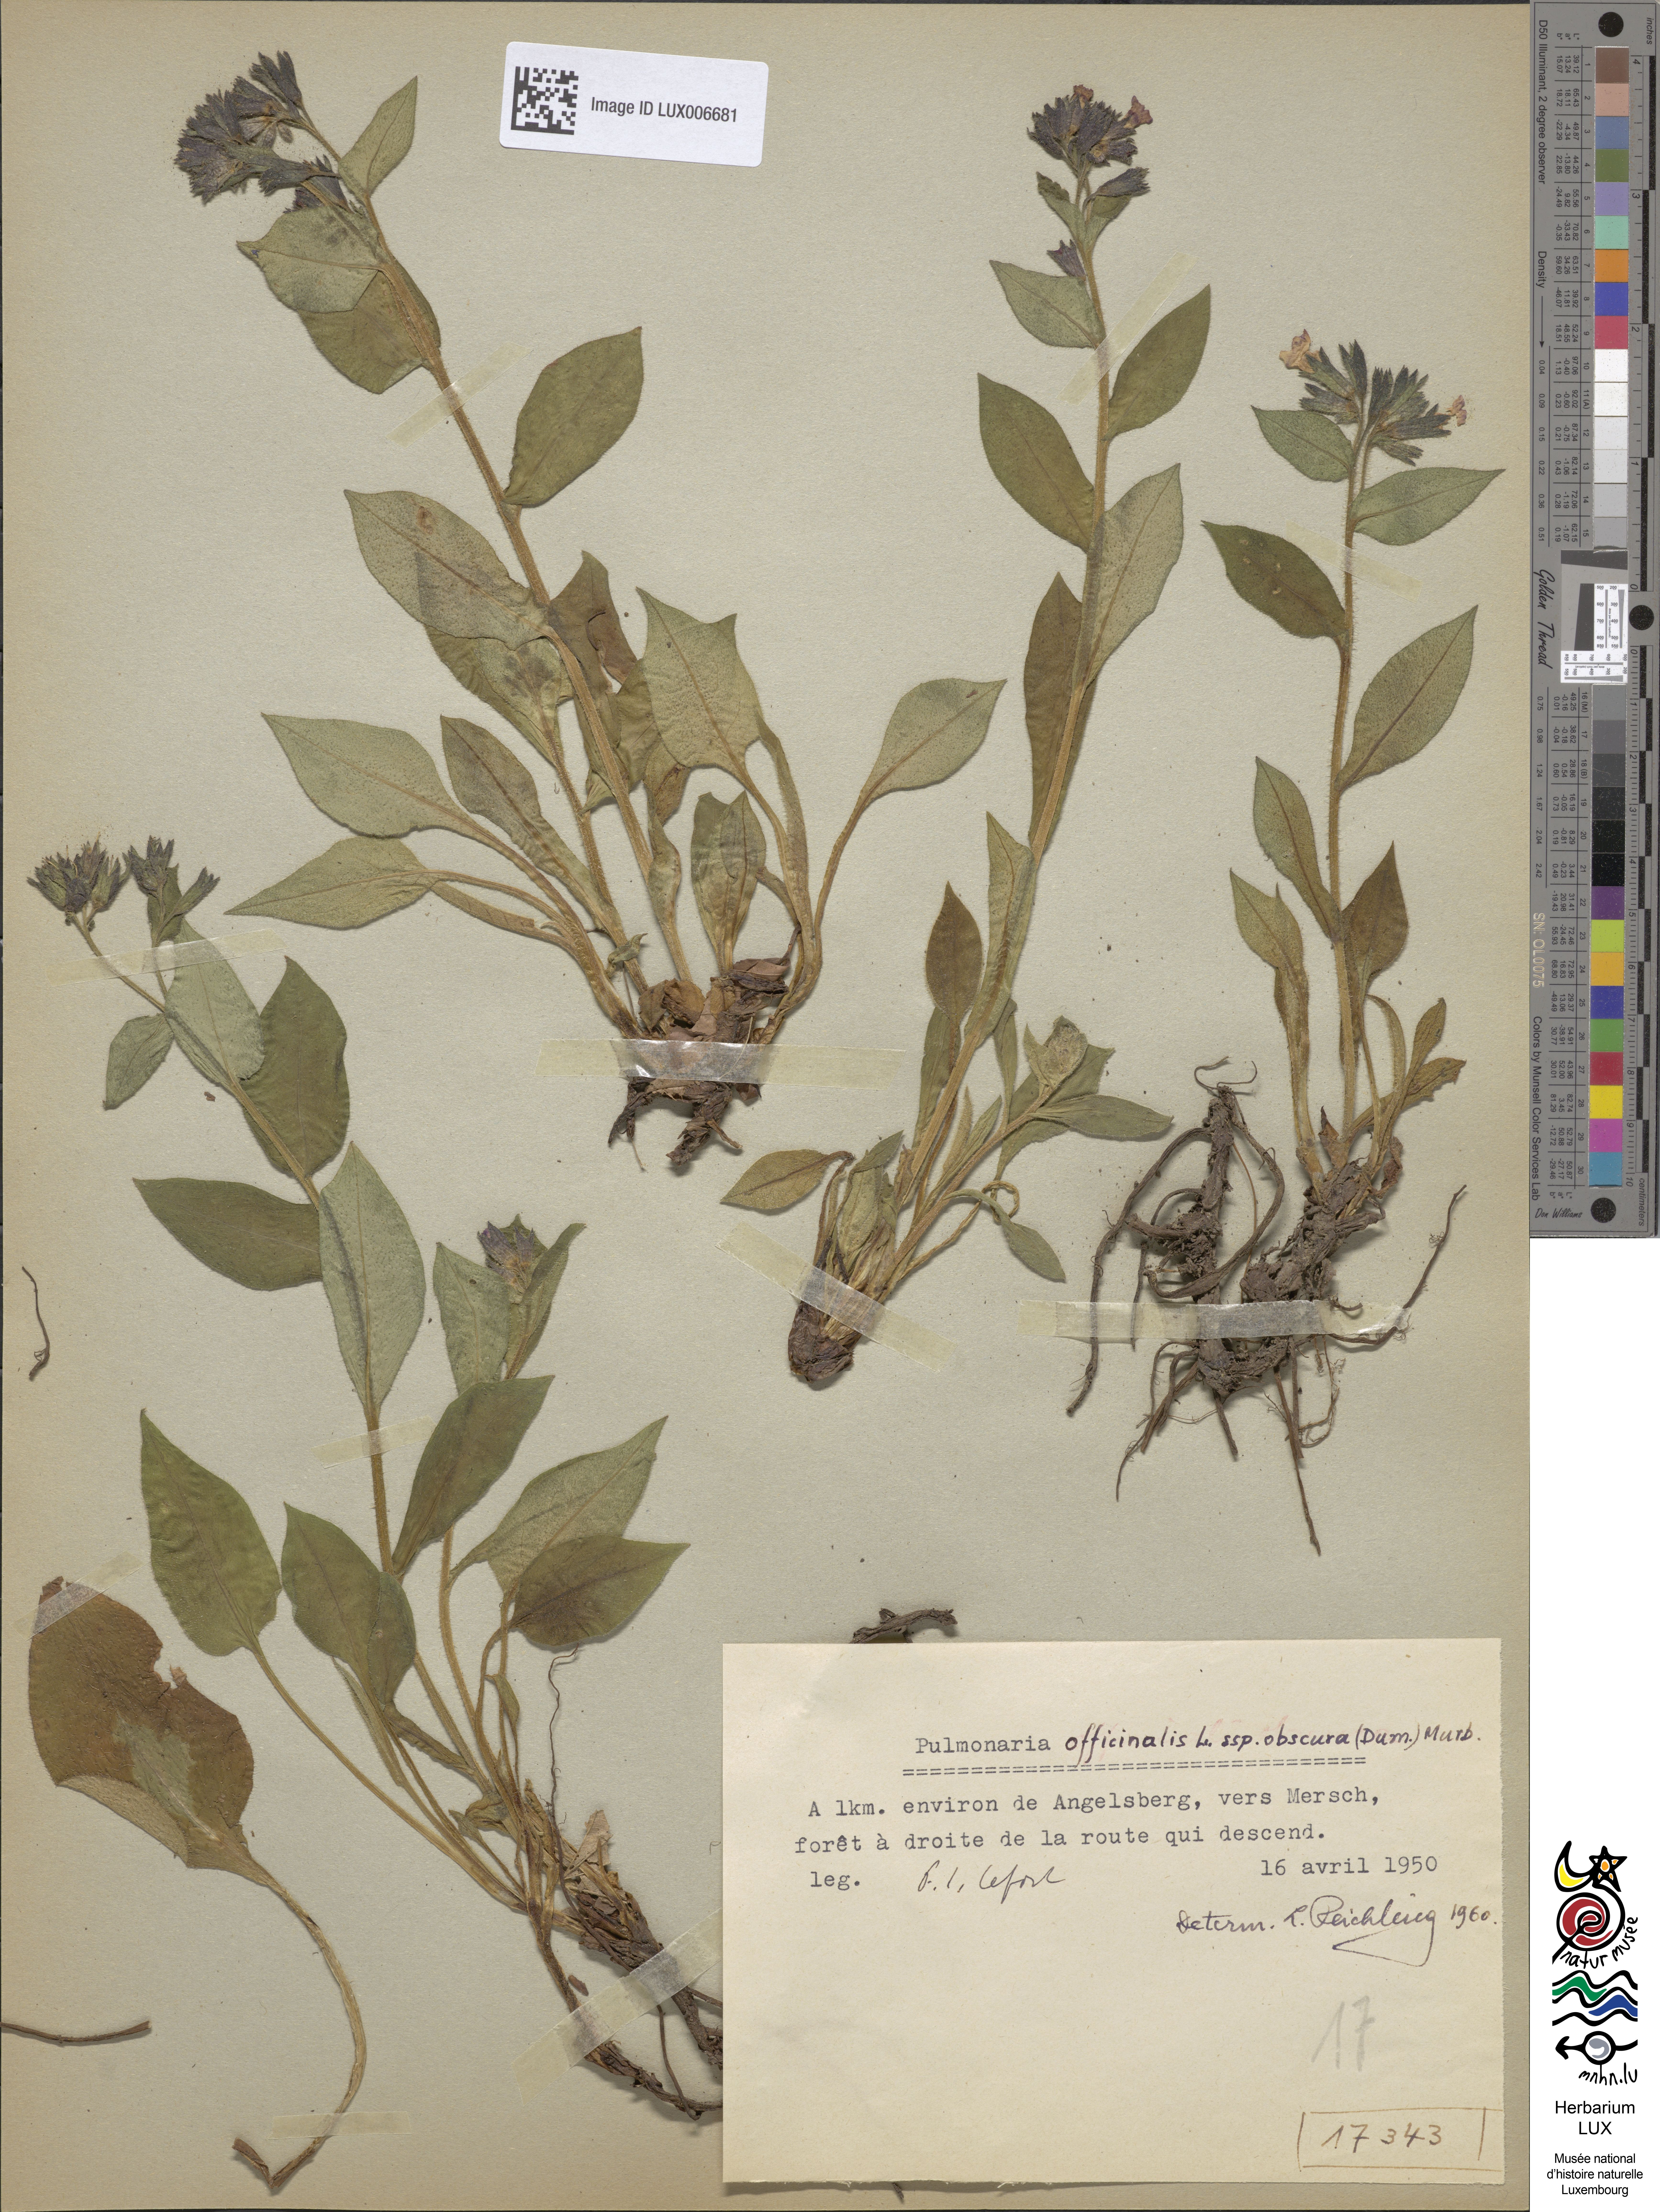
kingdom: Plantae
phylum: Tracheophyta
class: Magnoliopsida
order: Boraginales
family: Boraginaceae
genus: Pulmonaria
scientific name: Pulmonaria obscura
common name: Suffolk lungwort
